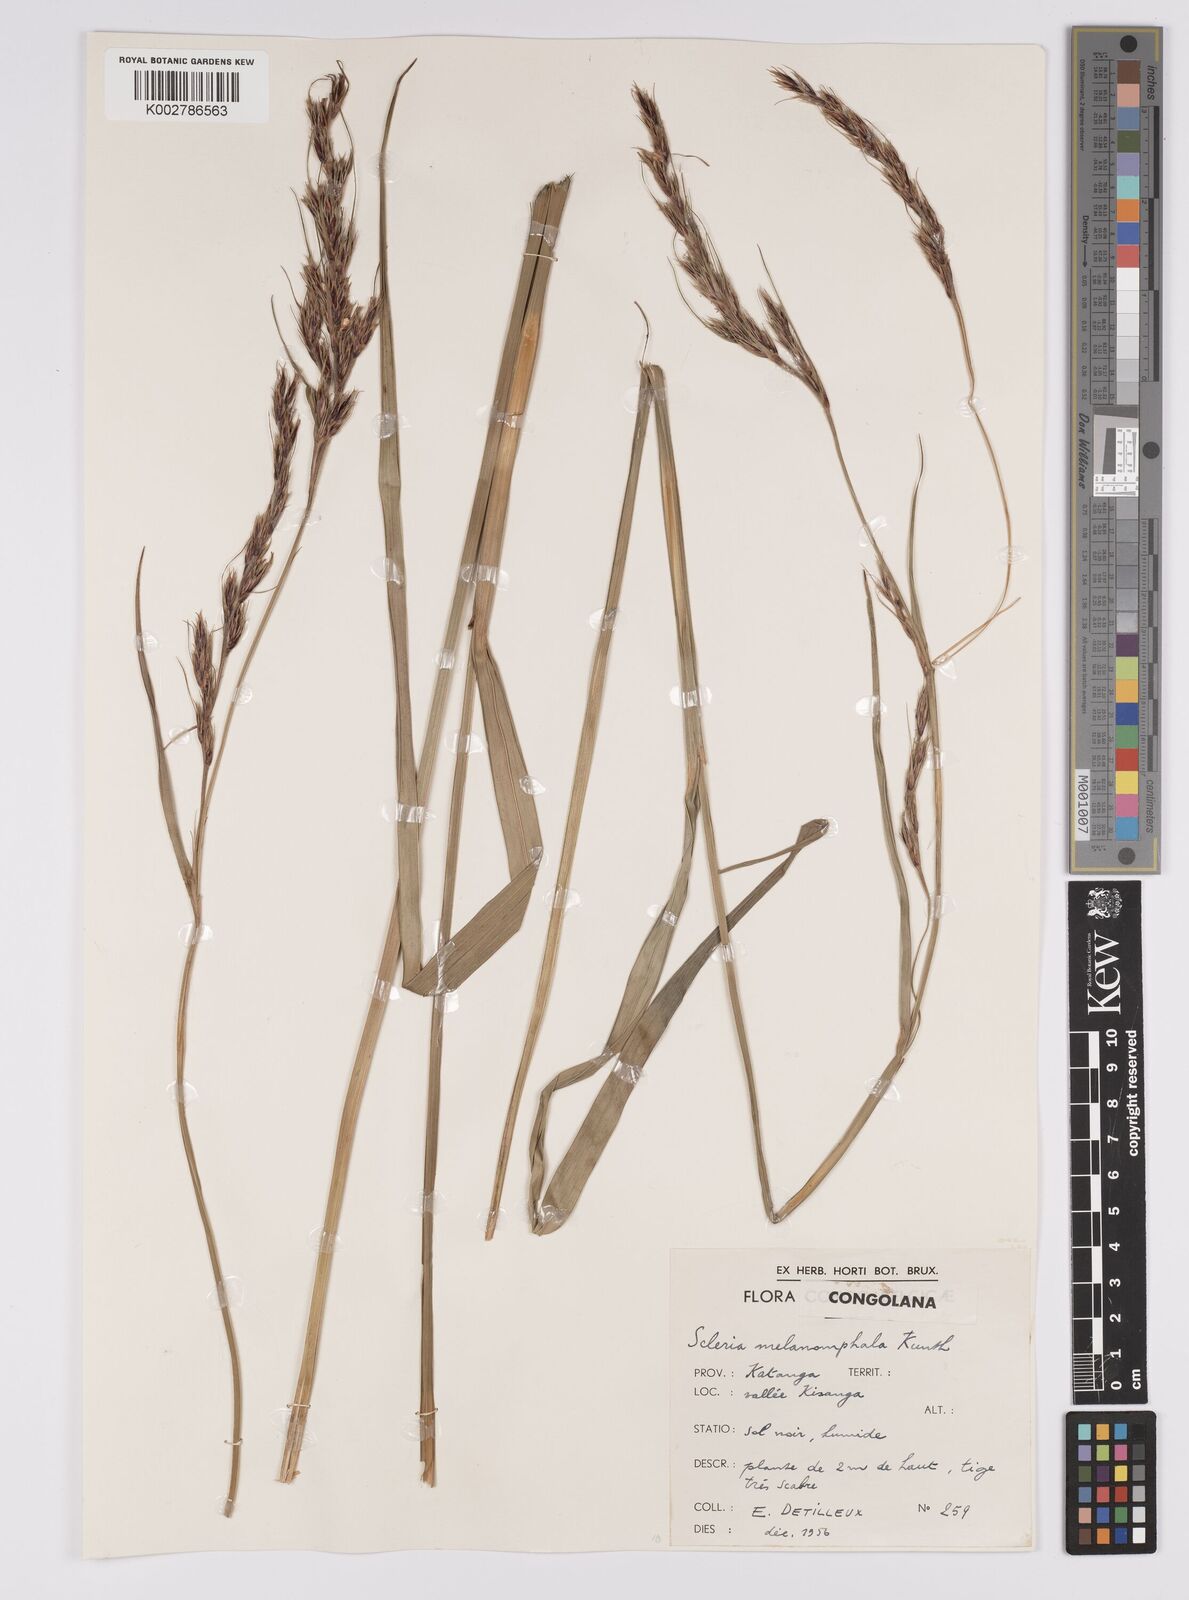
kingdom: Plantae
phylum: Tracheophyta
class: Liliopsida
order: Poales
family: Cyperaceae
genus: Scleria
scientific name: Scleria melanomphala
